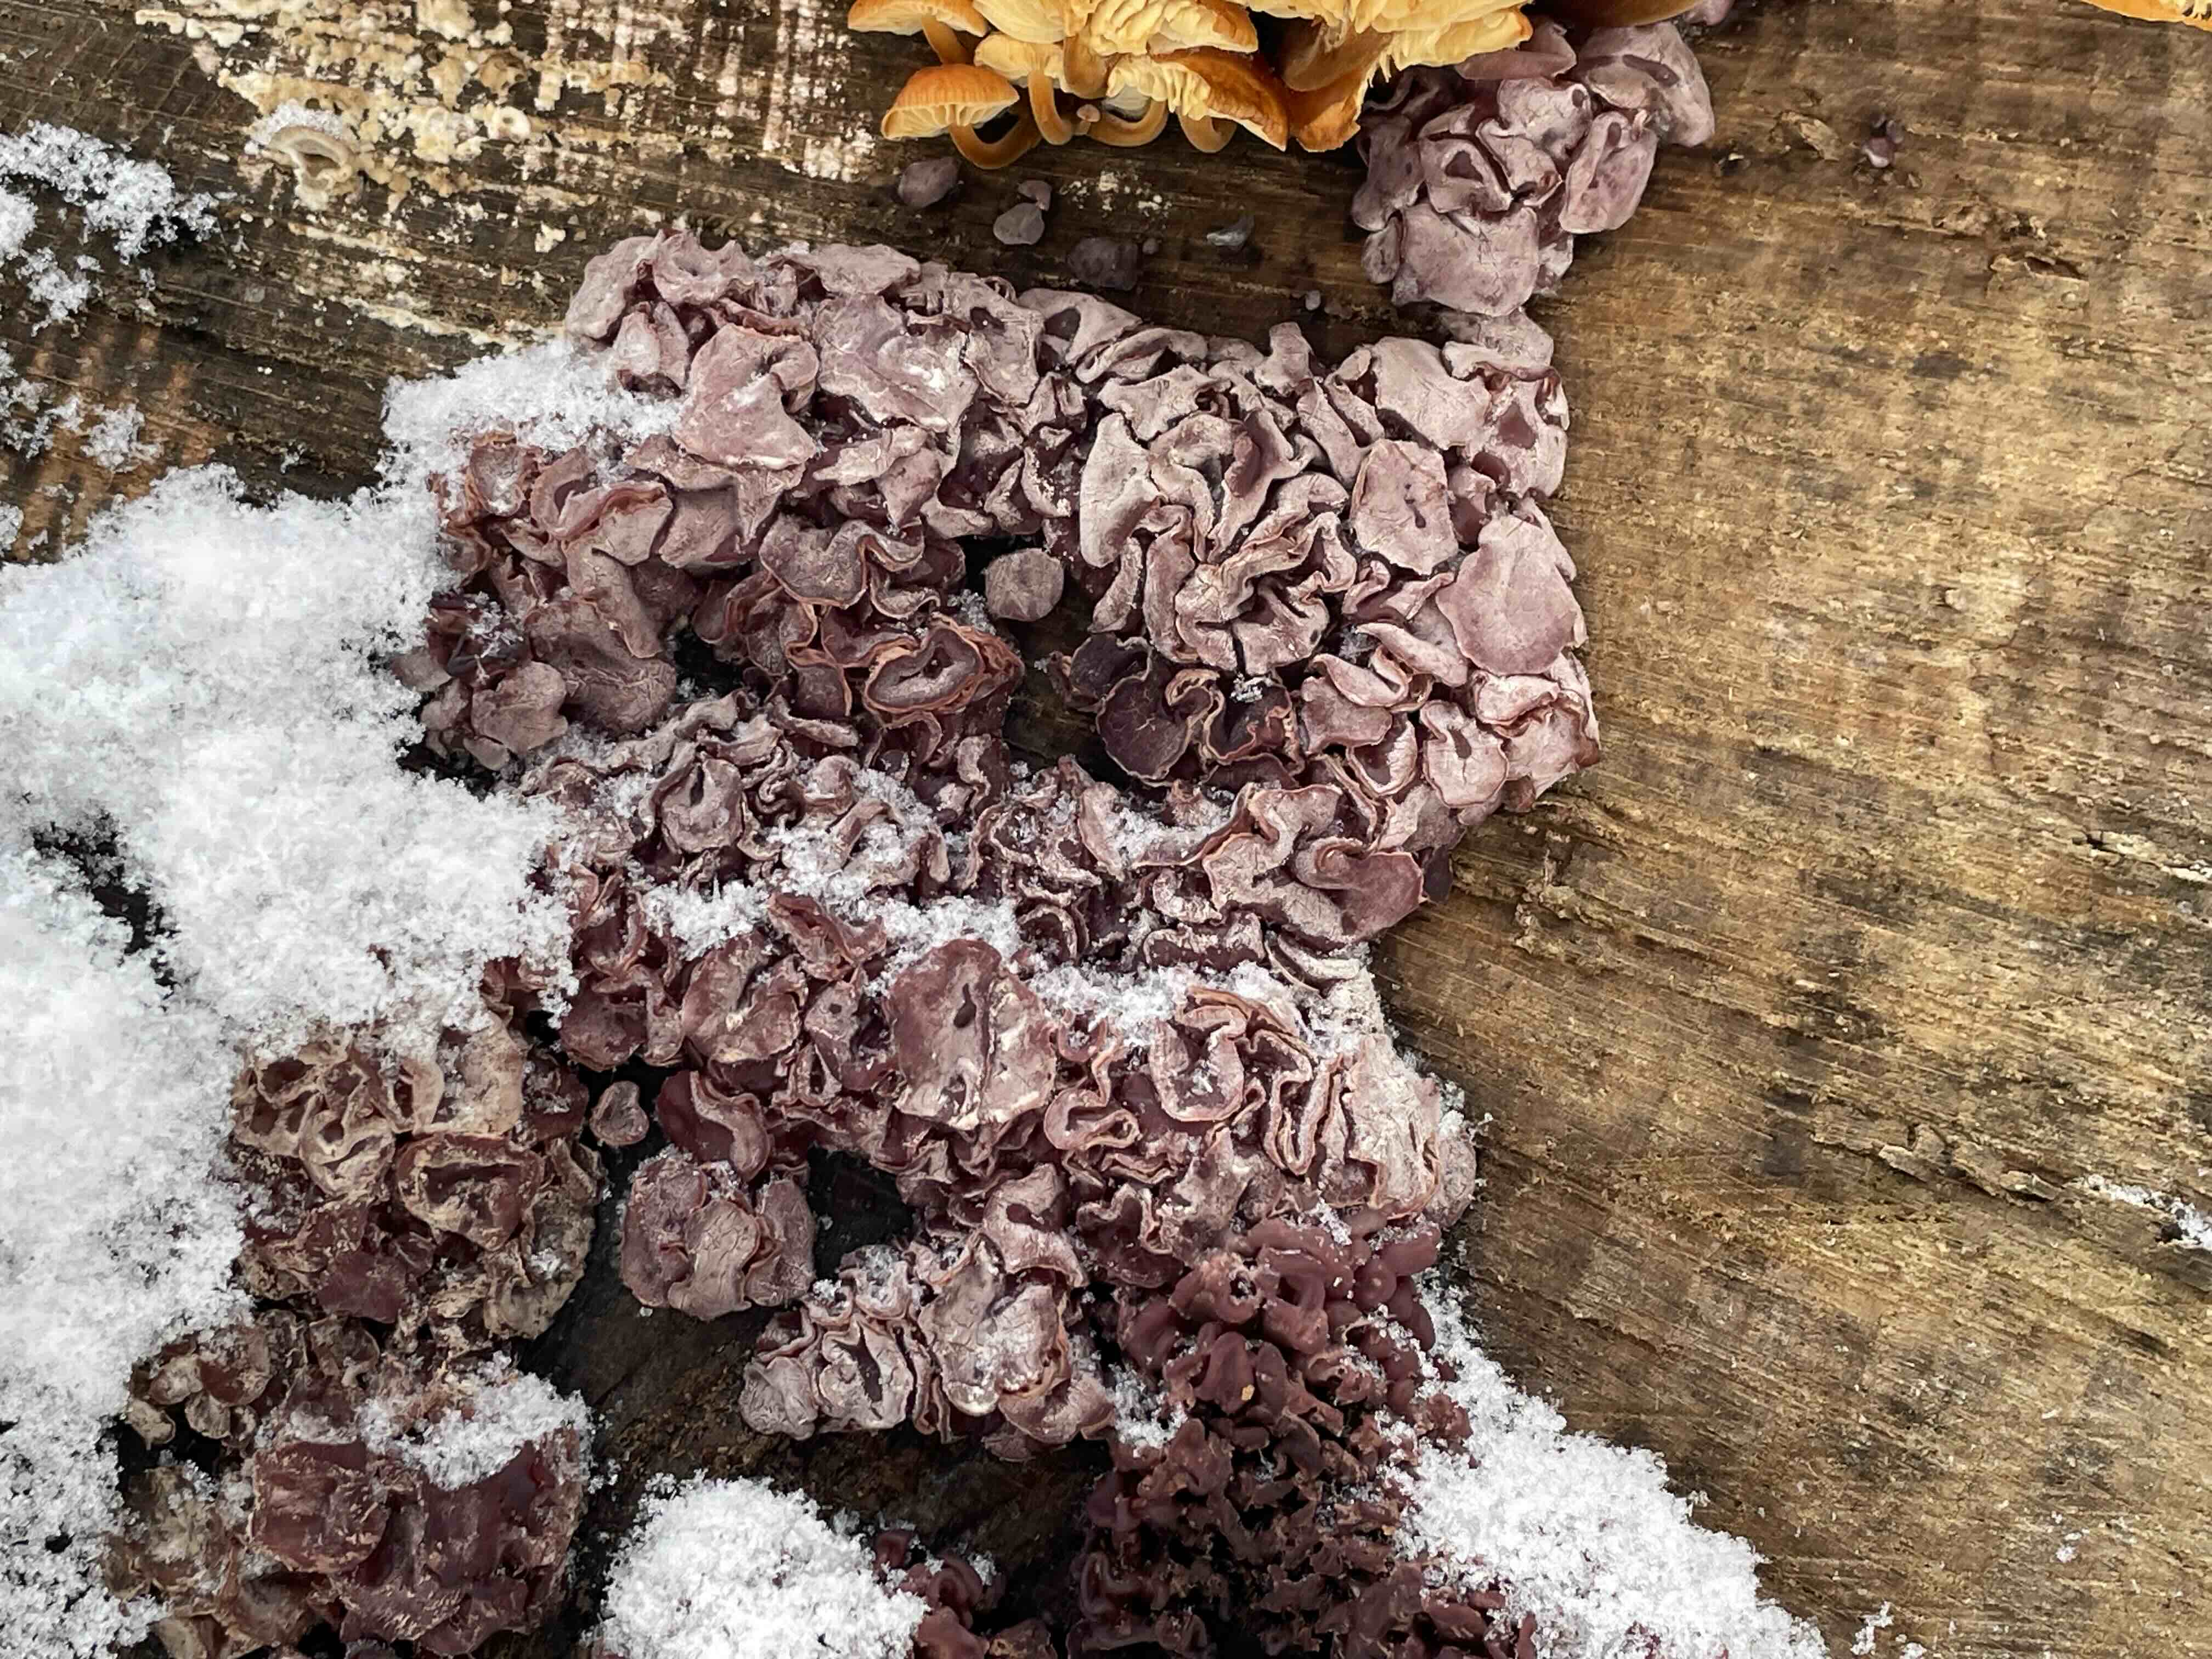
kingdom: Fungi
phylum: Ascomycota
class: Leotiomycetes
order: Helotiales
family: Gelatinodiscaceae
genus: Ascocoryne
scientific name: Ascocoryne sarcoides
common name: rødlilla sejskive
